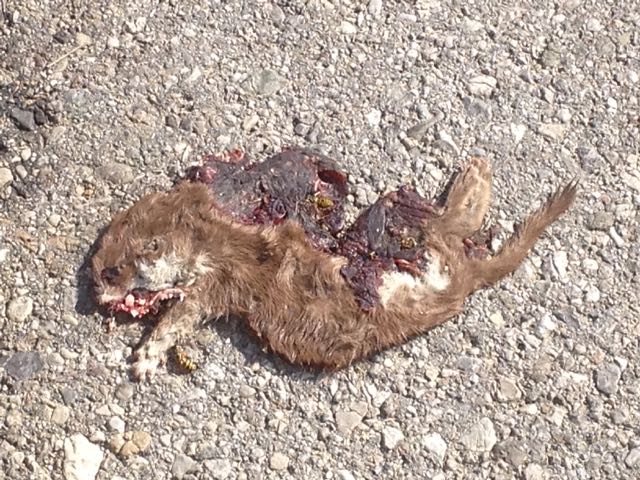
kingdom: Animalia
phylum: Chordata
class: Mammalia
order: Carnivora
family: Mustelidae
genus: Mustela
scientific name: Mustela nivalis
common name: Least weasel
